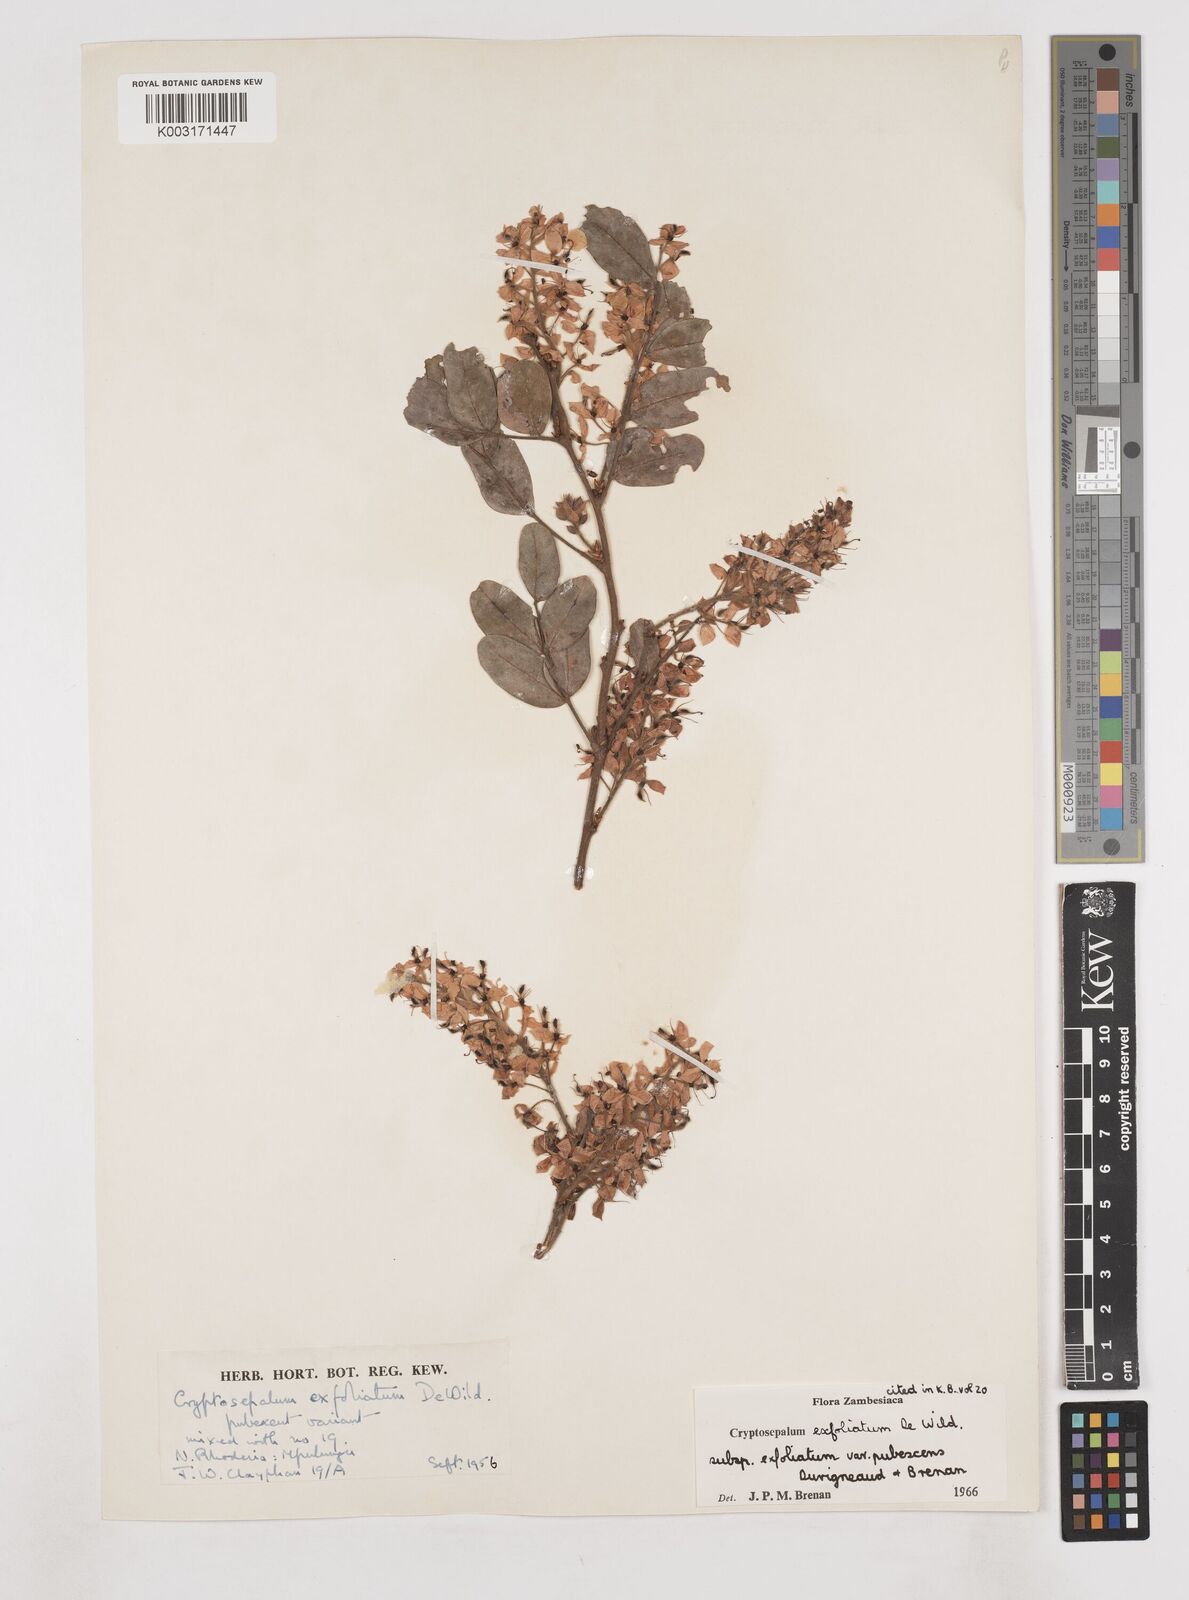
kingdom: Plantae
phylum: Tracheophyta
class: Magnoliopsida
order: Fabales
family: Fabaceae
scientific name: Fabaceae
